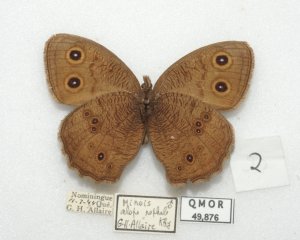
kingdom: Animalia
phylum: Arthropoda
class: Insecta
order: Lepidoptera
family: Nymphalidae
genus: Cercyonis
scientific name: Cercyonis pegala
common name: Common Wood-Nymph
